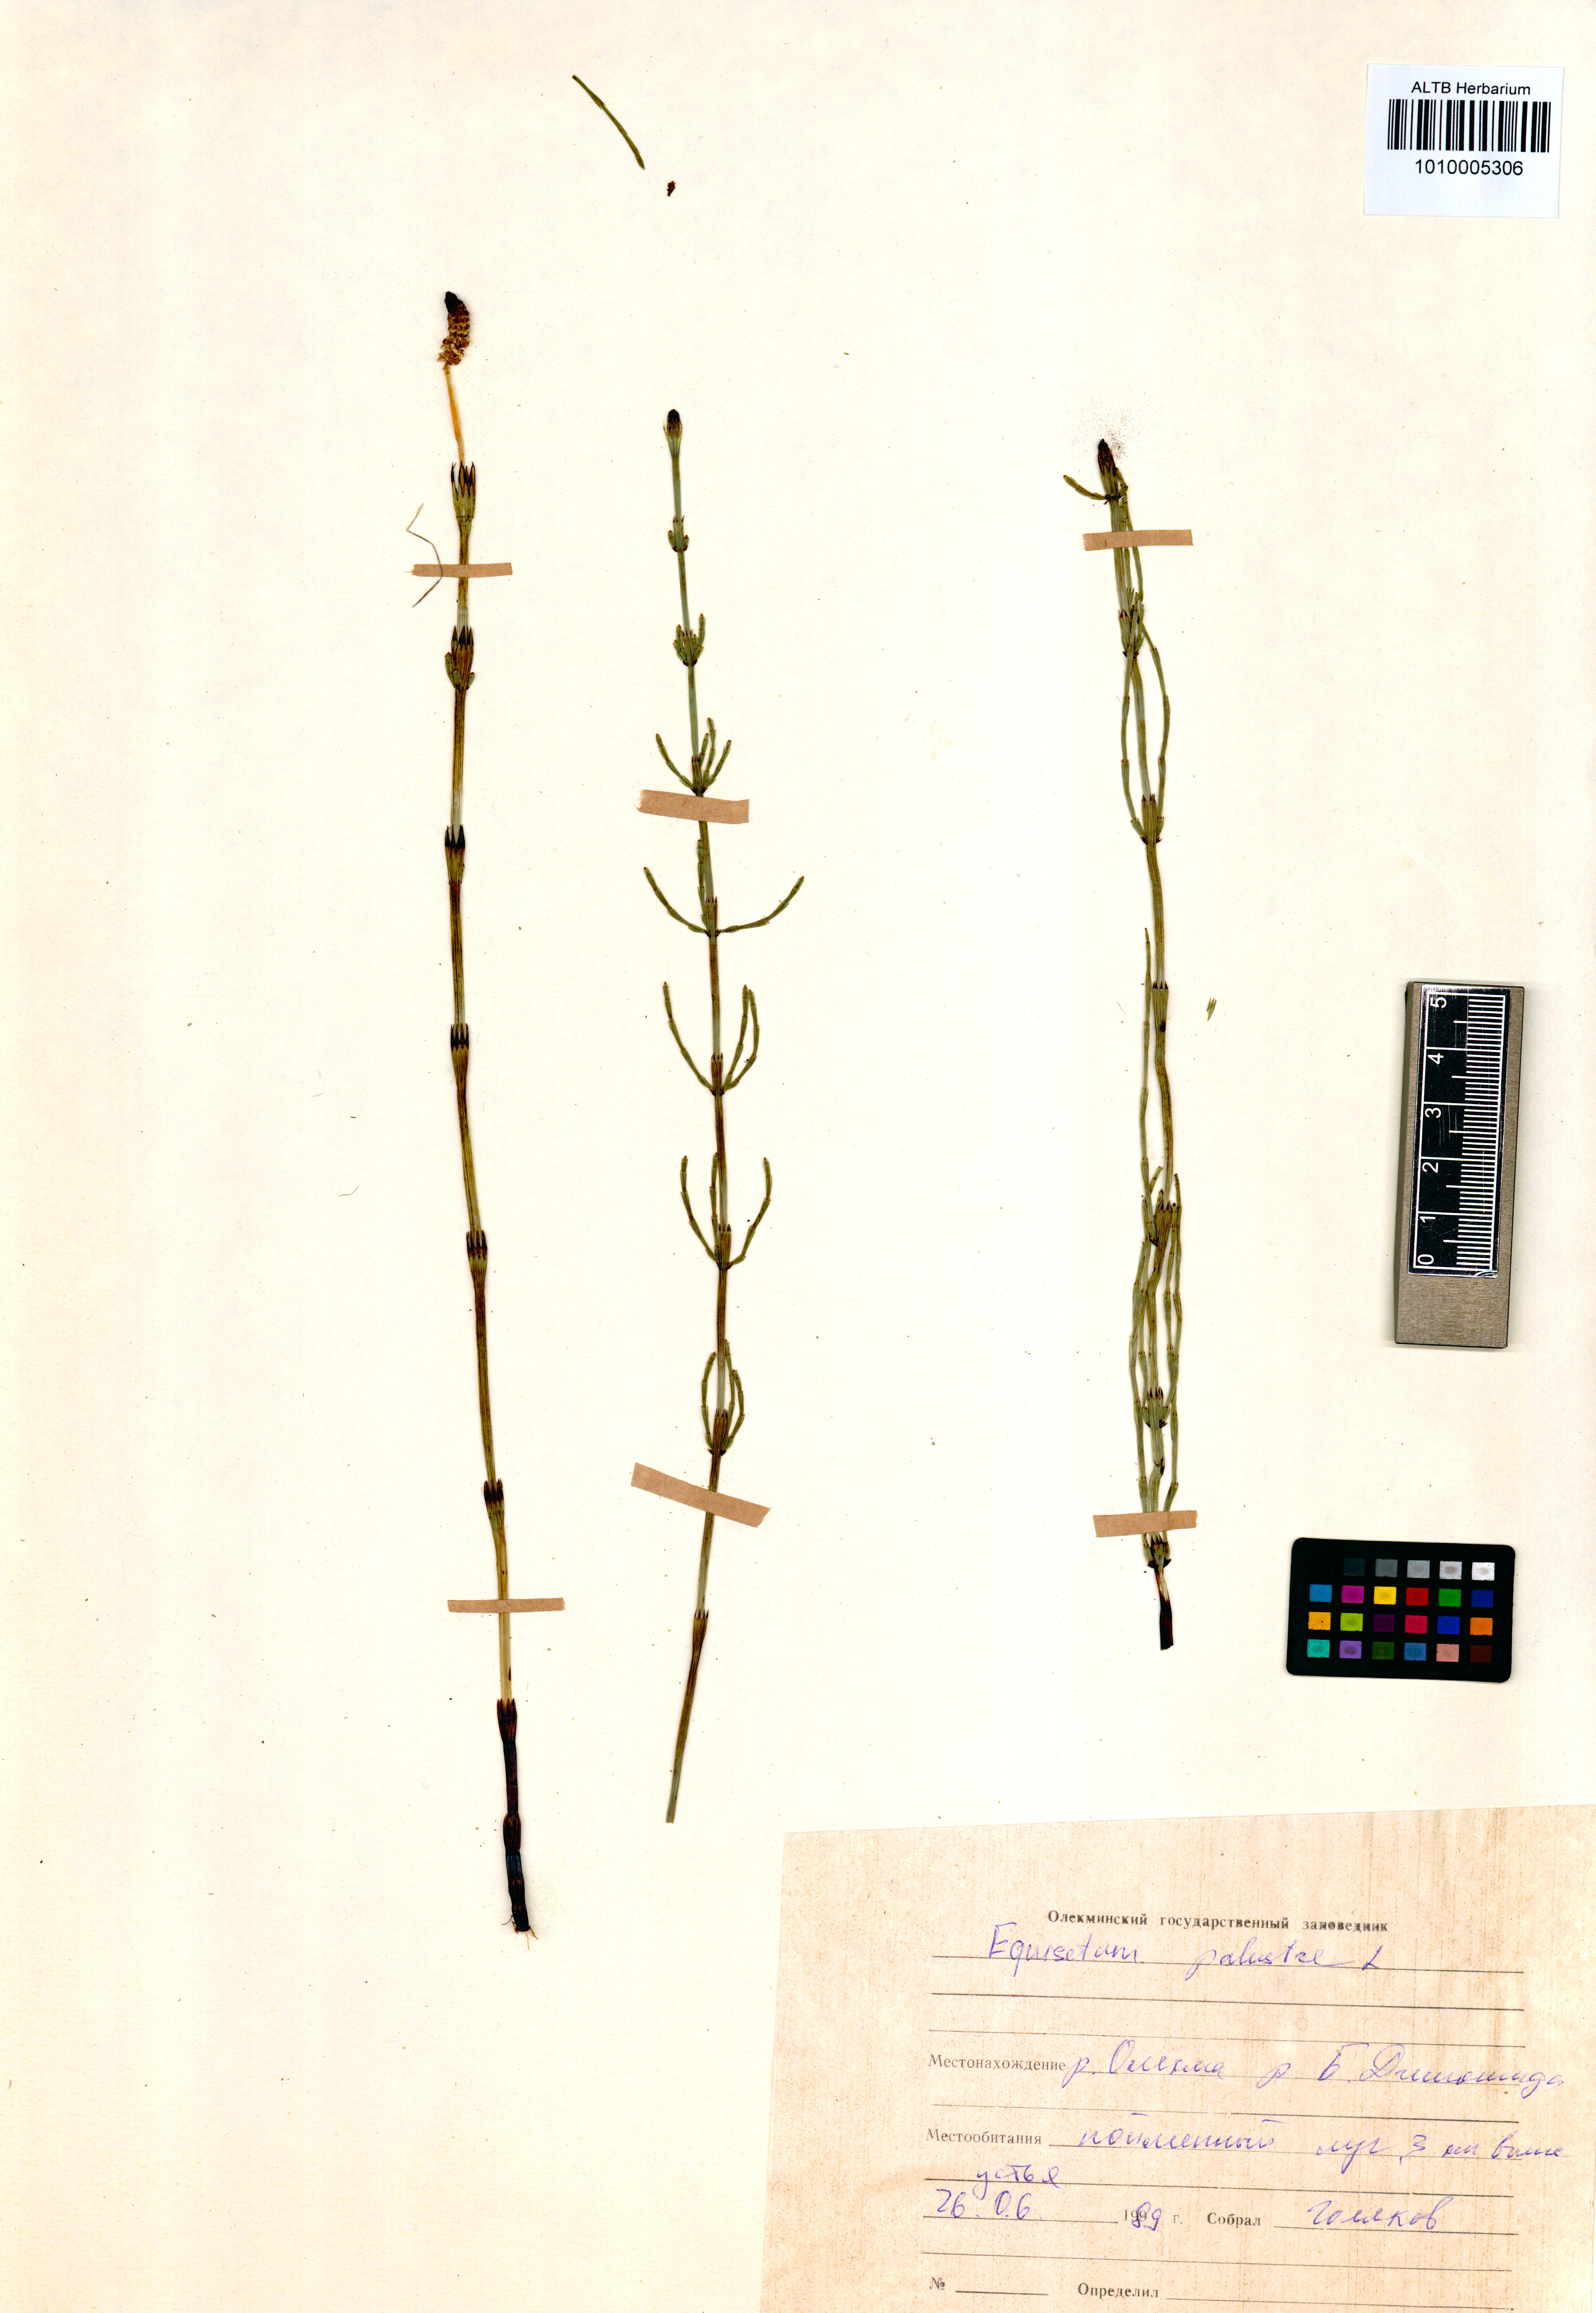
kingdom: Plantae
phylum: Tracheophyta
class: Polypodiopsida
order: Equisetales
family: Equisetaceae
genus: Equisetum
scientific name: Equisetum palustre
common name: Marsh horsetail
